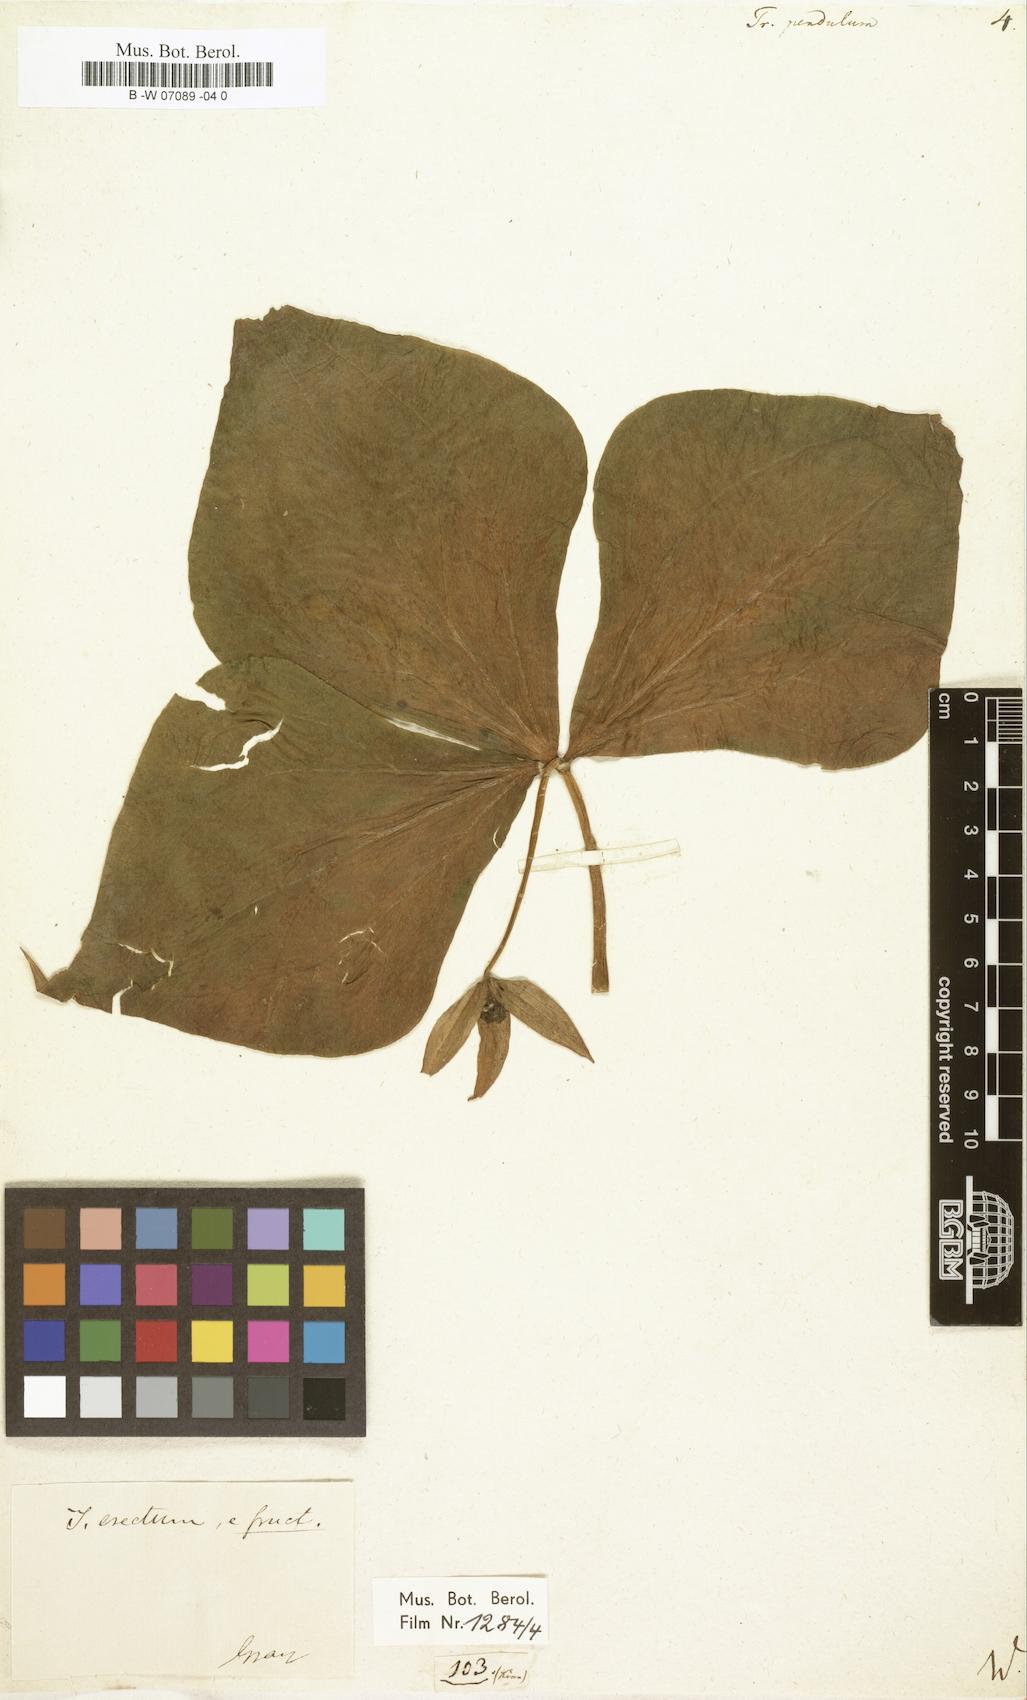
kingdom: Plantae
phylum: Tracheophyta
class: Liliopsida
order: Liliales
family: Melanthiaceae
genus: Trillium
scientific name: Trillium erectum
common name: Purple trillium
